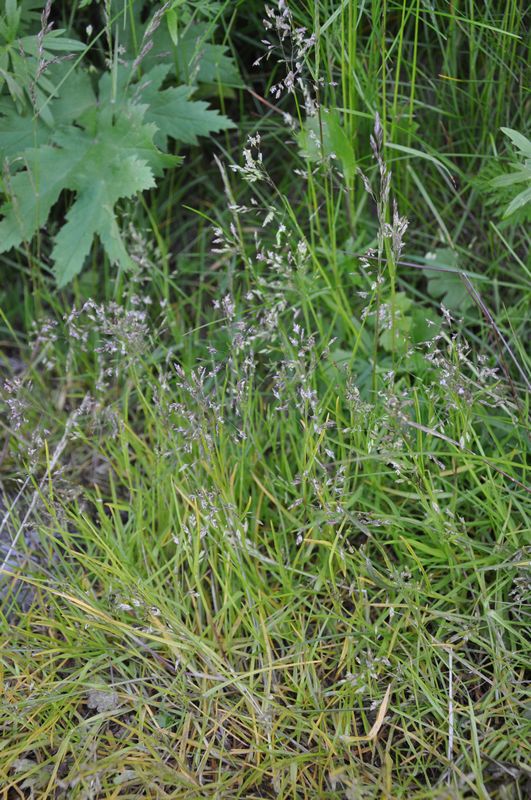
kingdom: Plantae
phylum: Tracheophyta
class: Liliopsida
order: Poales
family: Poaceae
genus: Poa
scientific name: Poa supina
